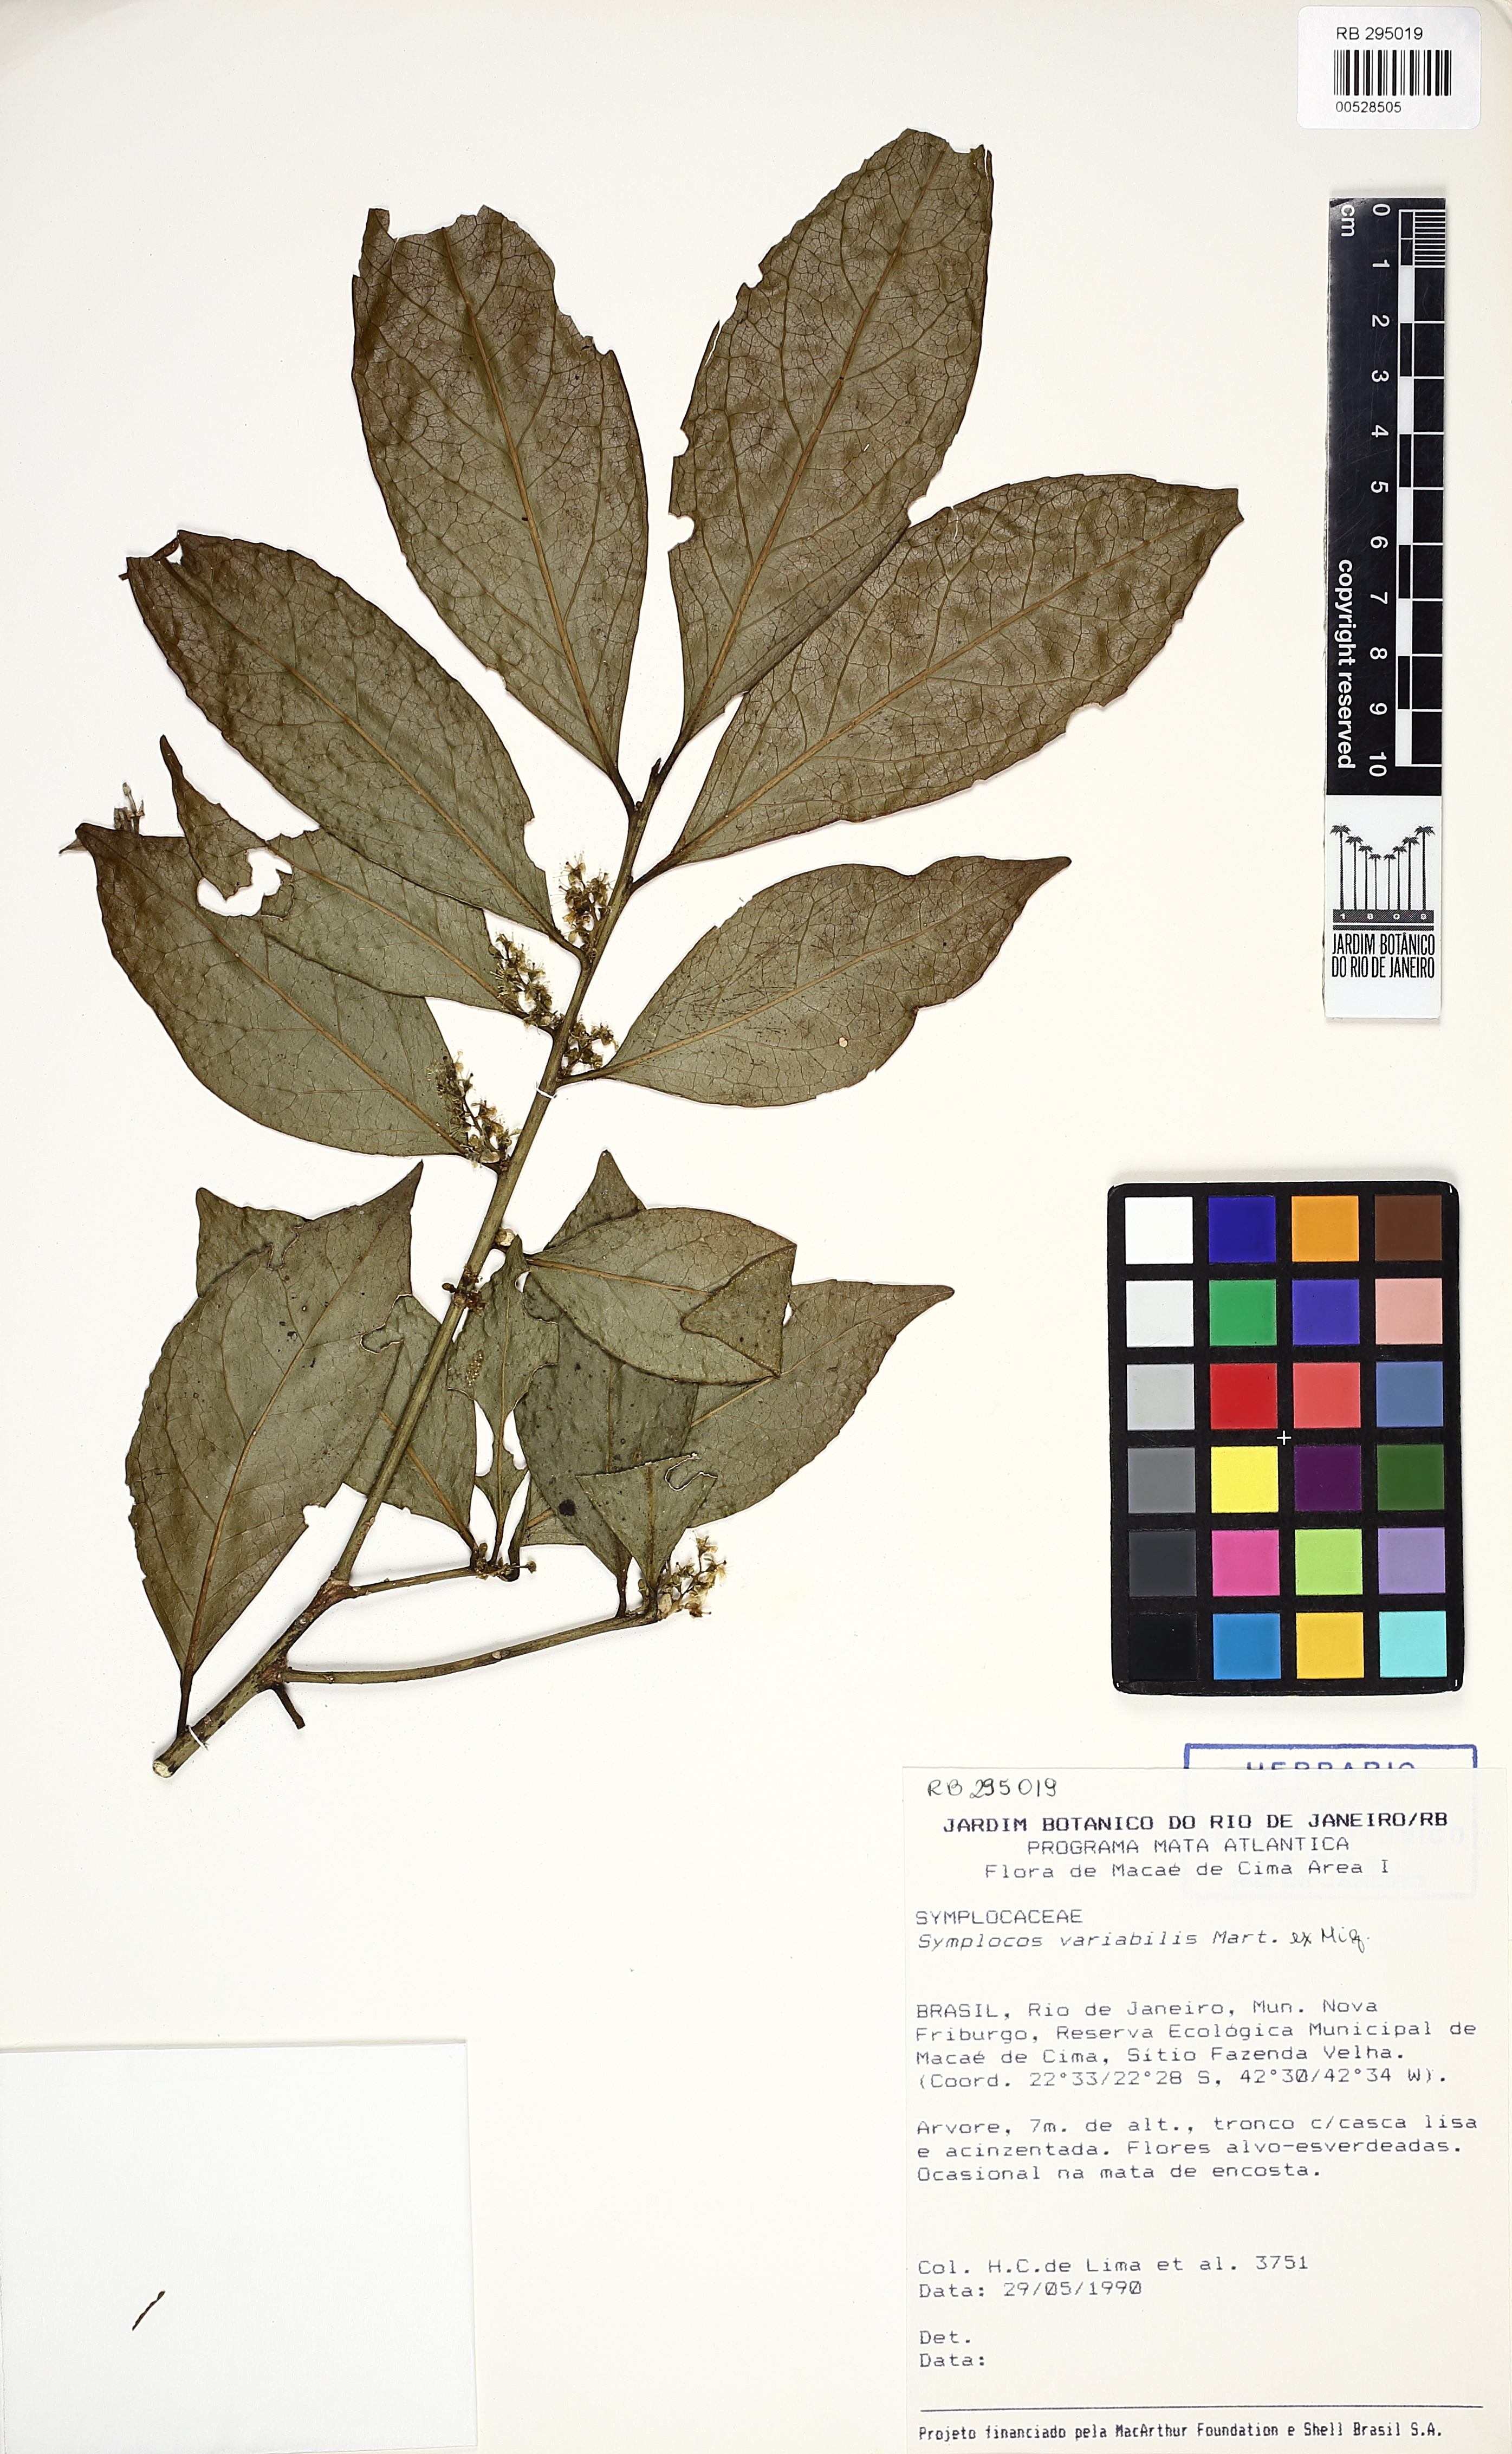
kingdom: Plantae
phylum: Tracheophyta
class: Magnoliopsida
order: Ericales
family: Symplocaceae
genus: Symplocos
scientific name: Symplocos estrellensis
